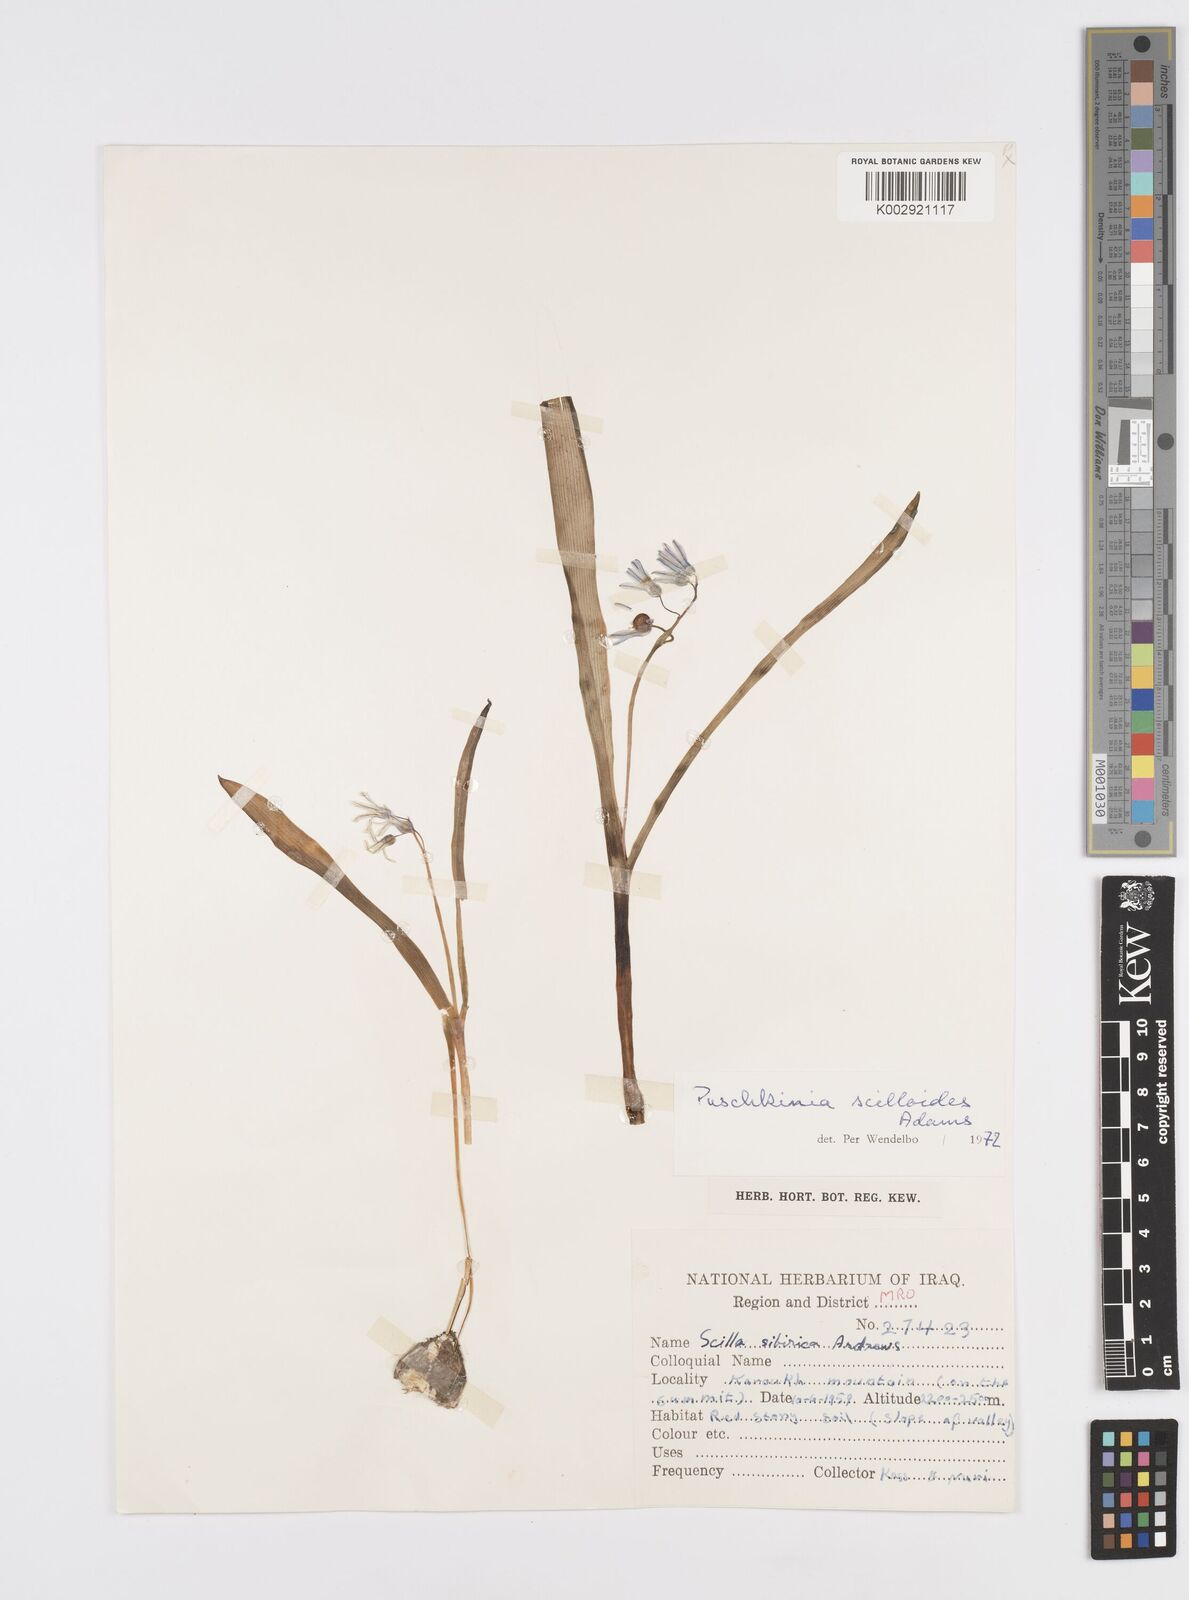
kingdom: Plantae
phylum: Tracheophyta
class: Liliopsida
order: Asparagales
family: Asparagaceae
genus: Puschkinia
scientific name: Puschkinia scilloides
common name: Striped squill
